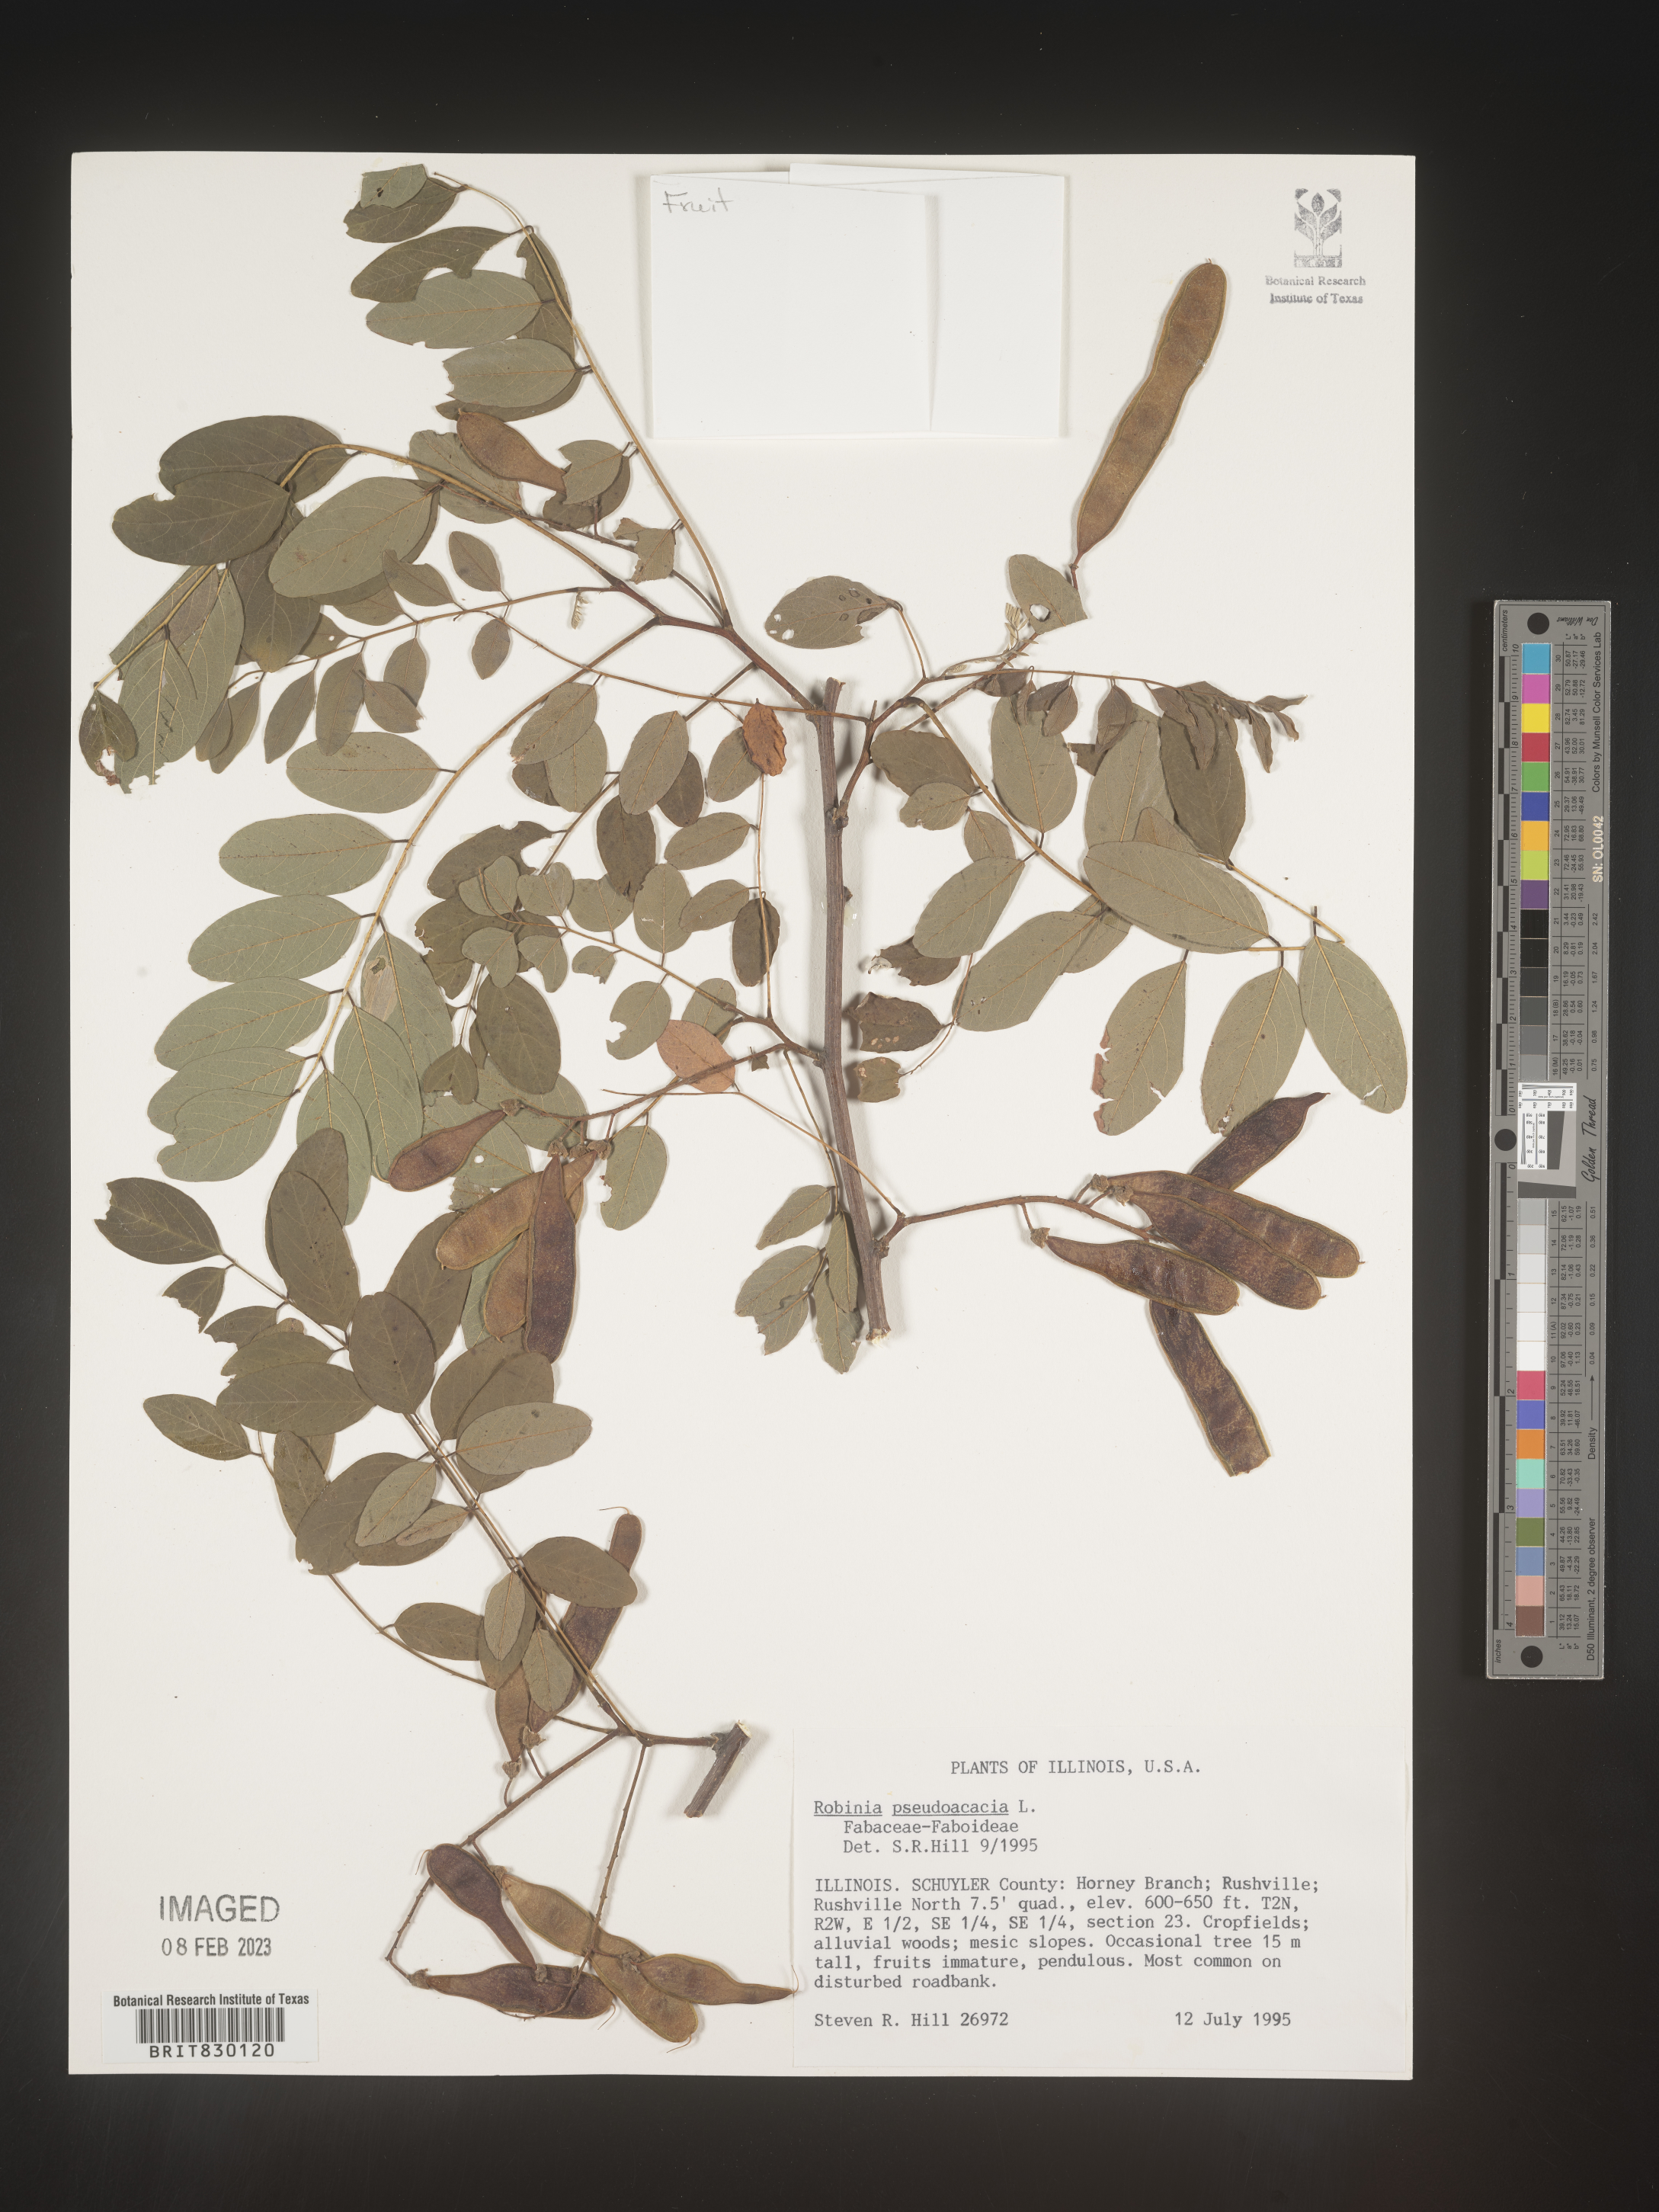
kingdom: Plantae
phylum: Tracheophyta
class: Magnoliopsida
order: Fabales
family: Fabaceae
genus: Robinia
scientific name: Robinia
